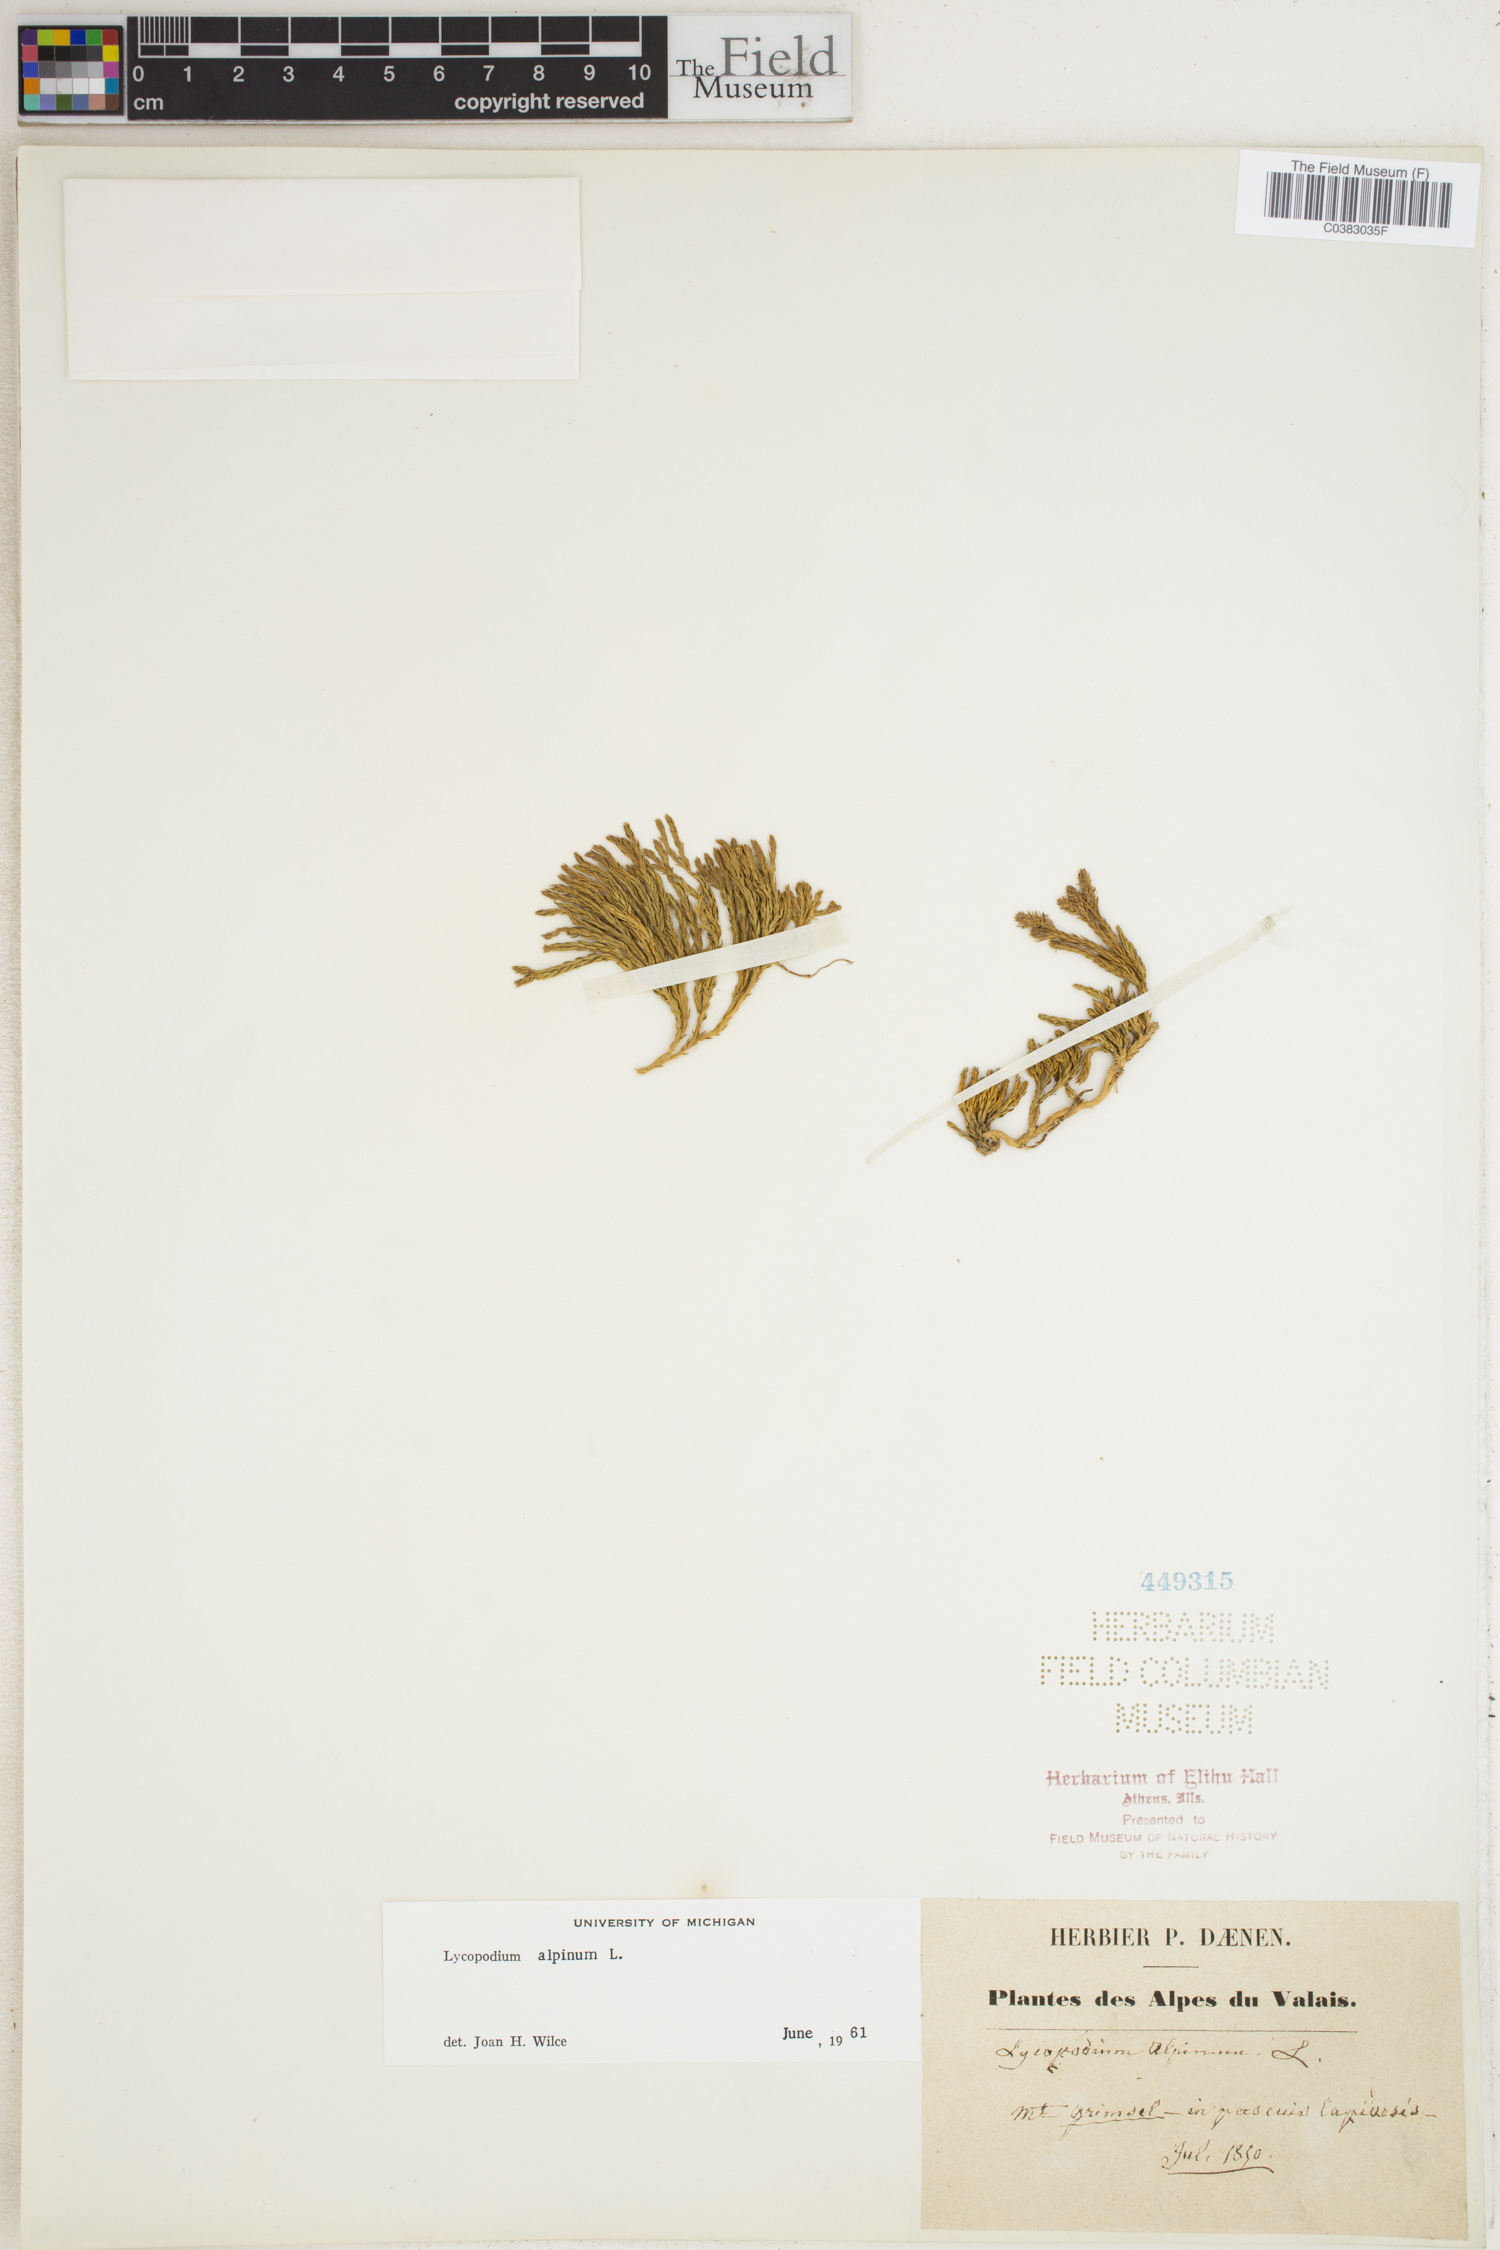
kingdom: Plantae
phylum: Tracheophyta
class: Lycopodiopsida
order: Lycopodiales
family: Lycopodiaceae
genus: Diphasiastrum
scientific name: Diphasiastrum alpinum
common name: Alpine clubmoss
